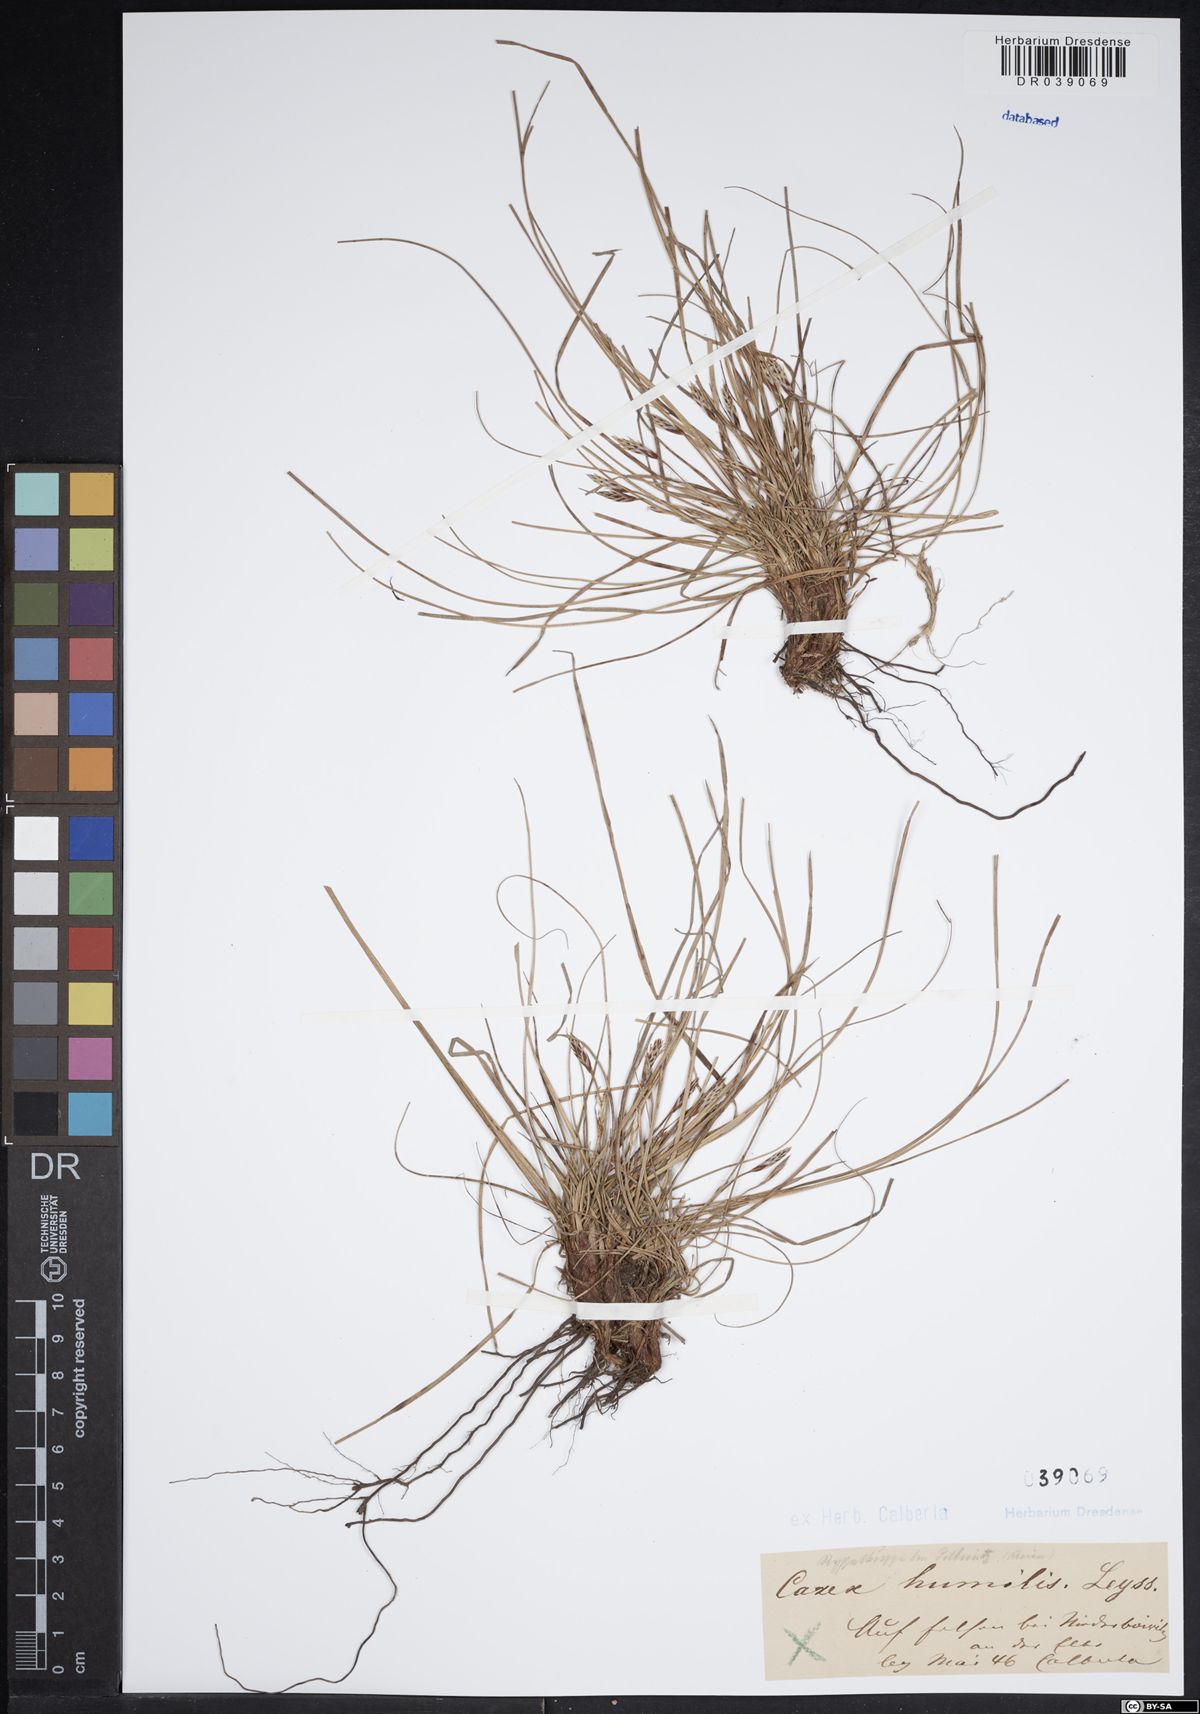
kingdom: Plantae
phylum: Tracheophyta
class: Liliopsida
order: Poales
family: Cyperaceae
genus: Carex
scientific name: Carex humilis
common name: Dwarf sedge
